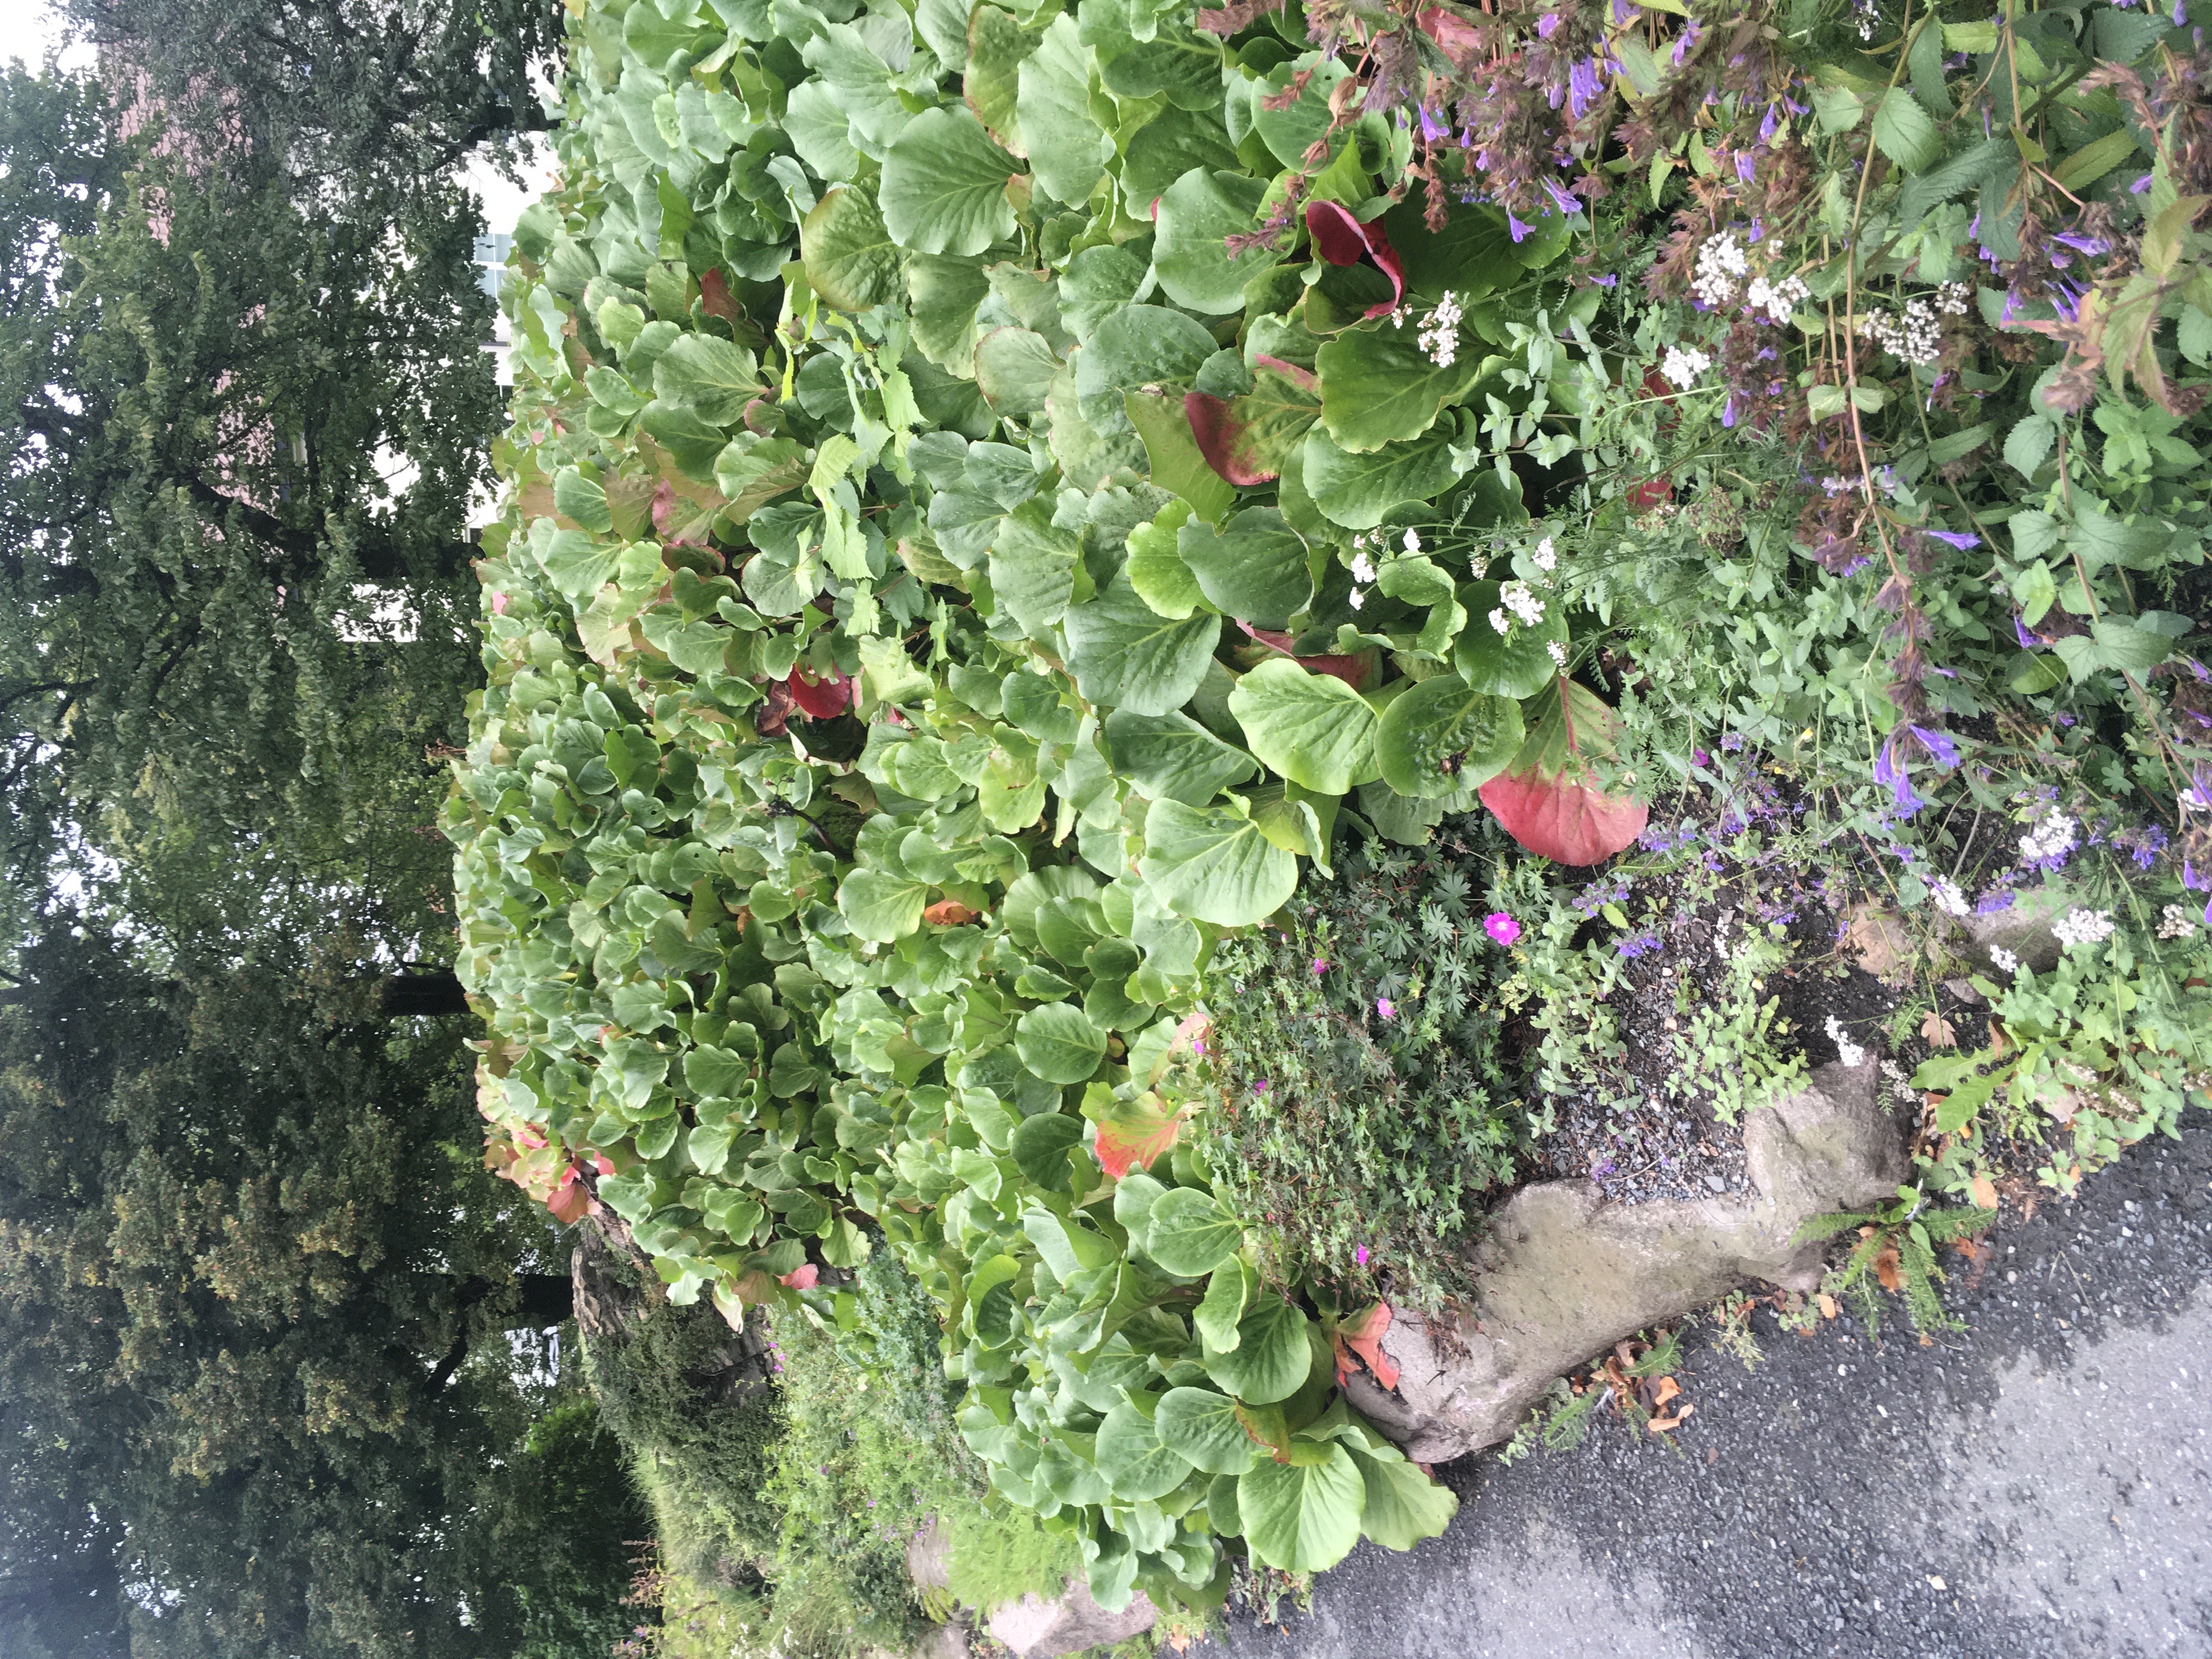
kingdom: Plantae
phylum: Tracheophyta
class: Magnoliopsida
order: Saxifragales
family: Saxifragaceae
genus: Bergenia
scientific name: Bergenia crassifolia
